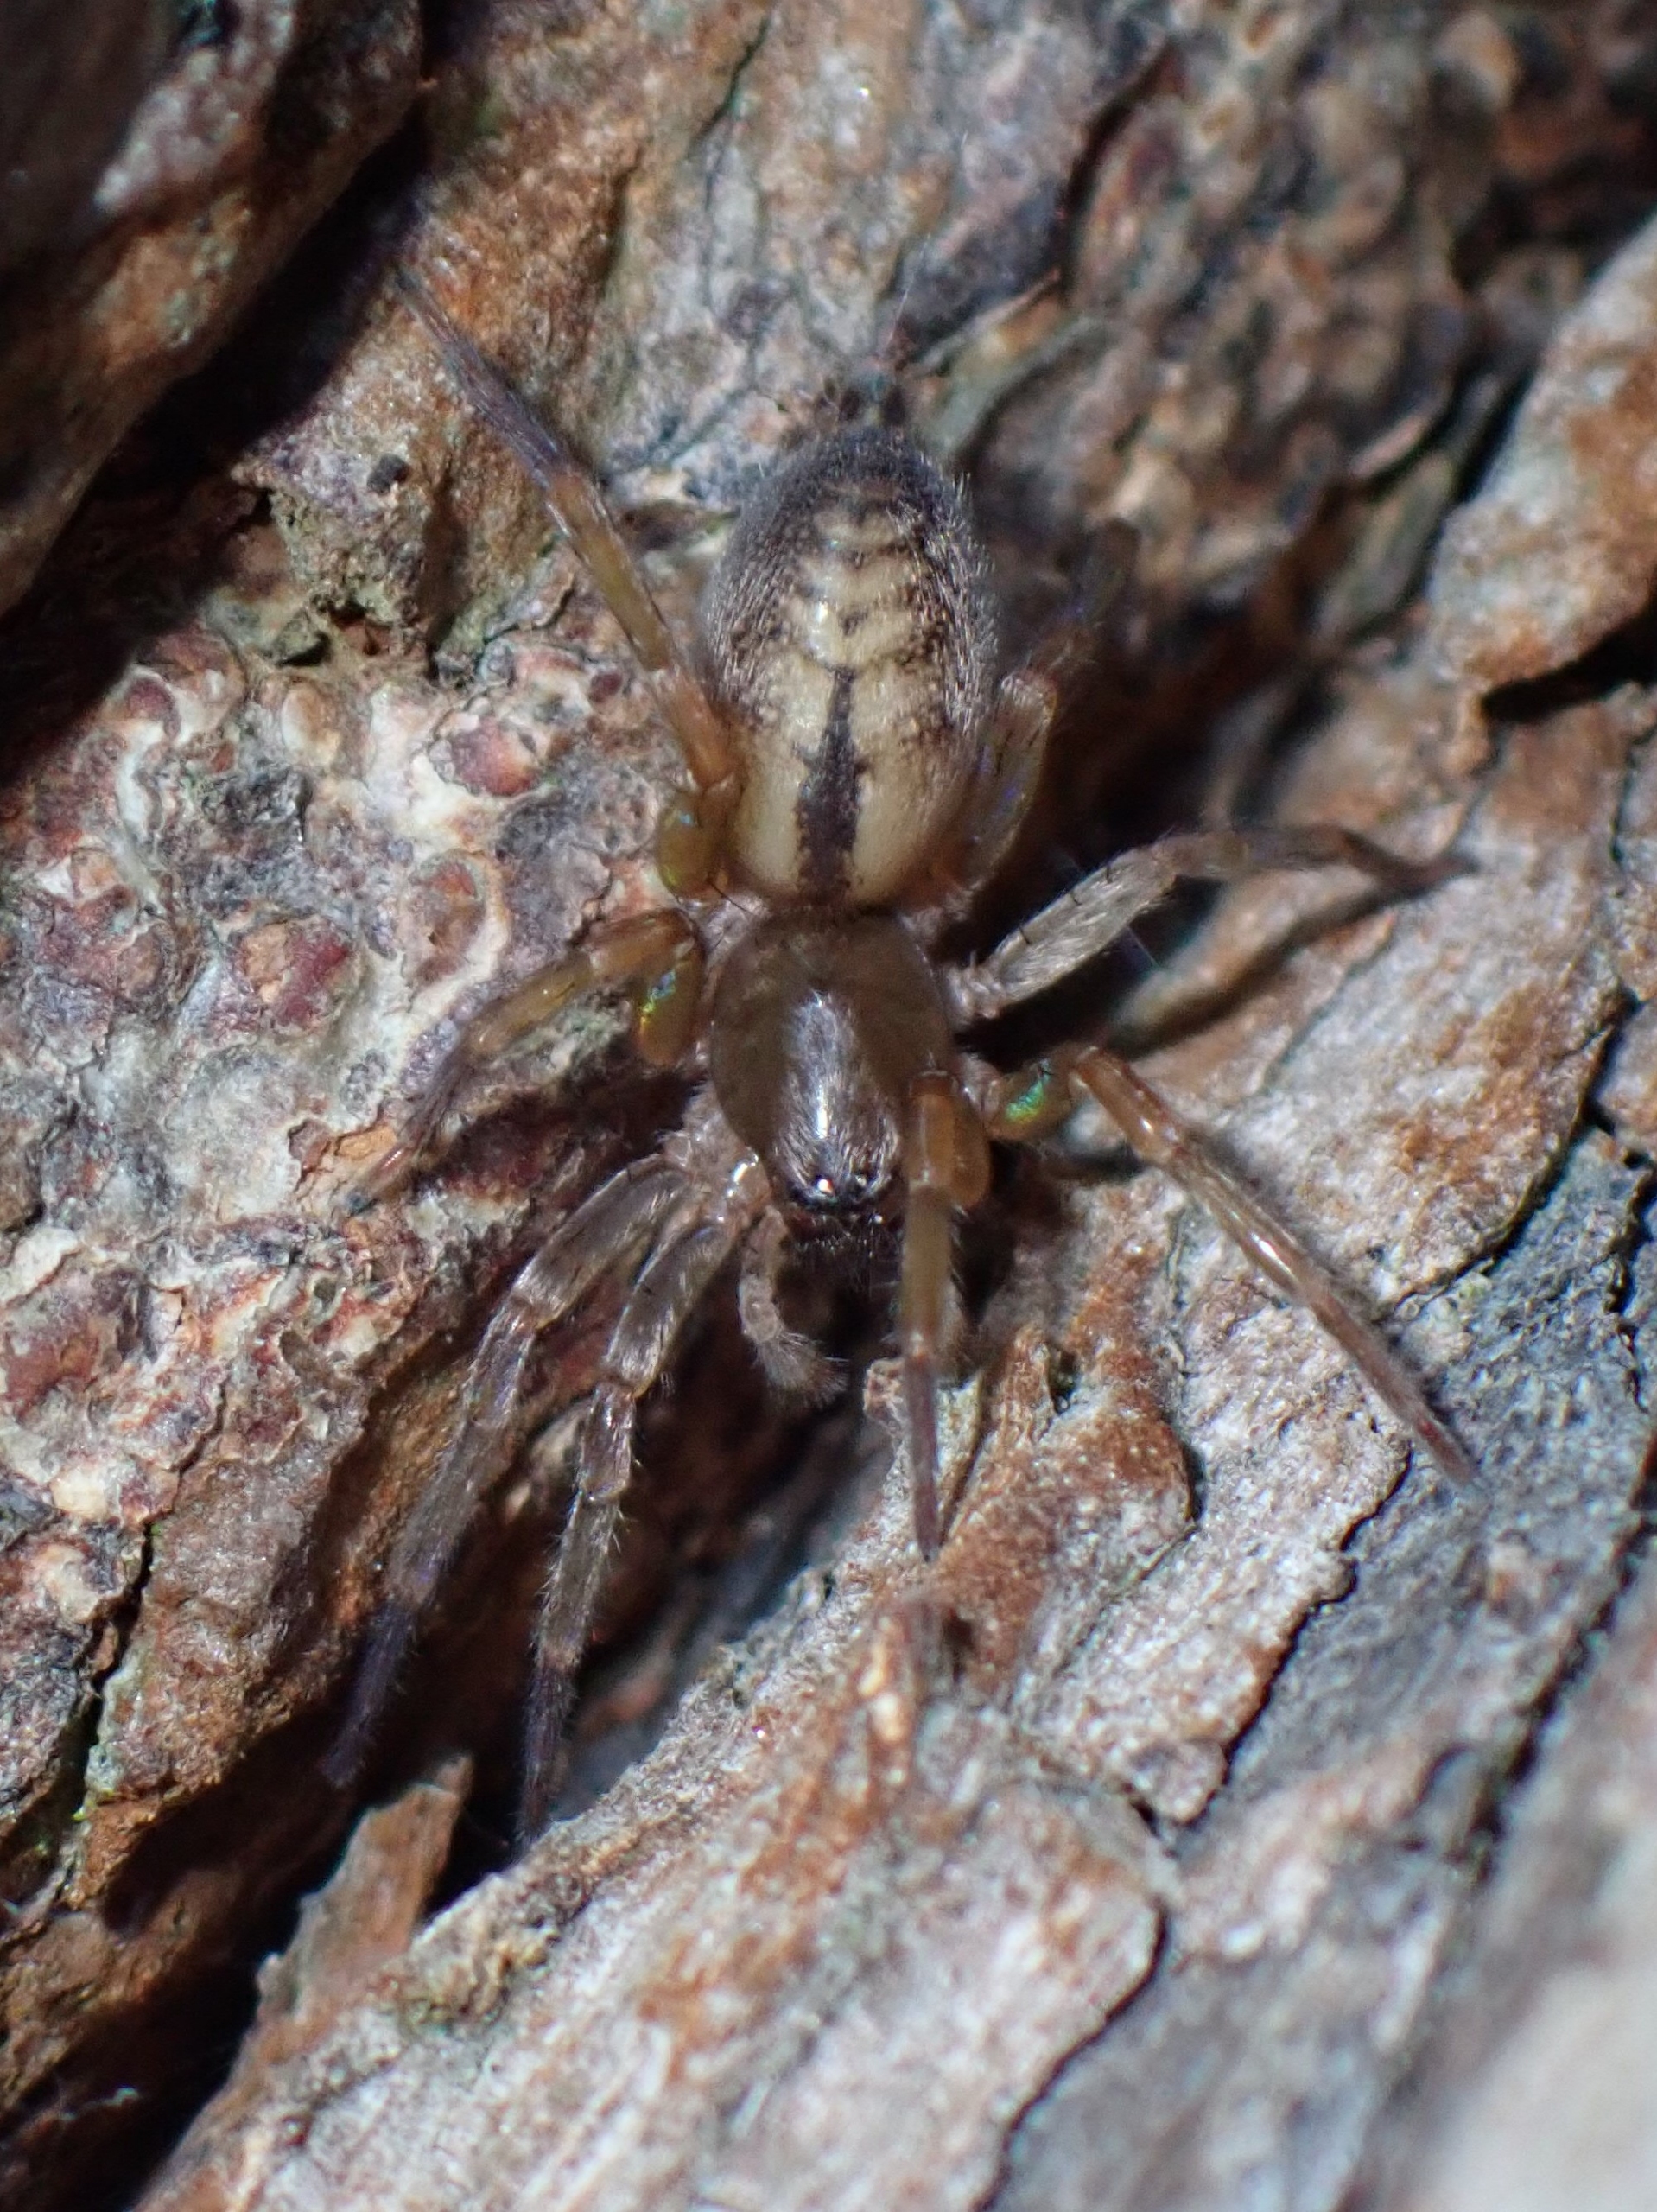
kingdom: Animalia
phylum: Arthropoda
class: Arachnida
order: Araneae
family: Clubionidae
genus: Clubiona
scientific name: Clubiona corticalis
